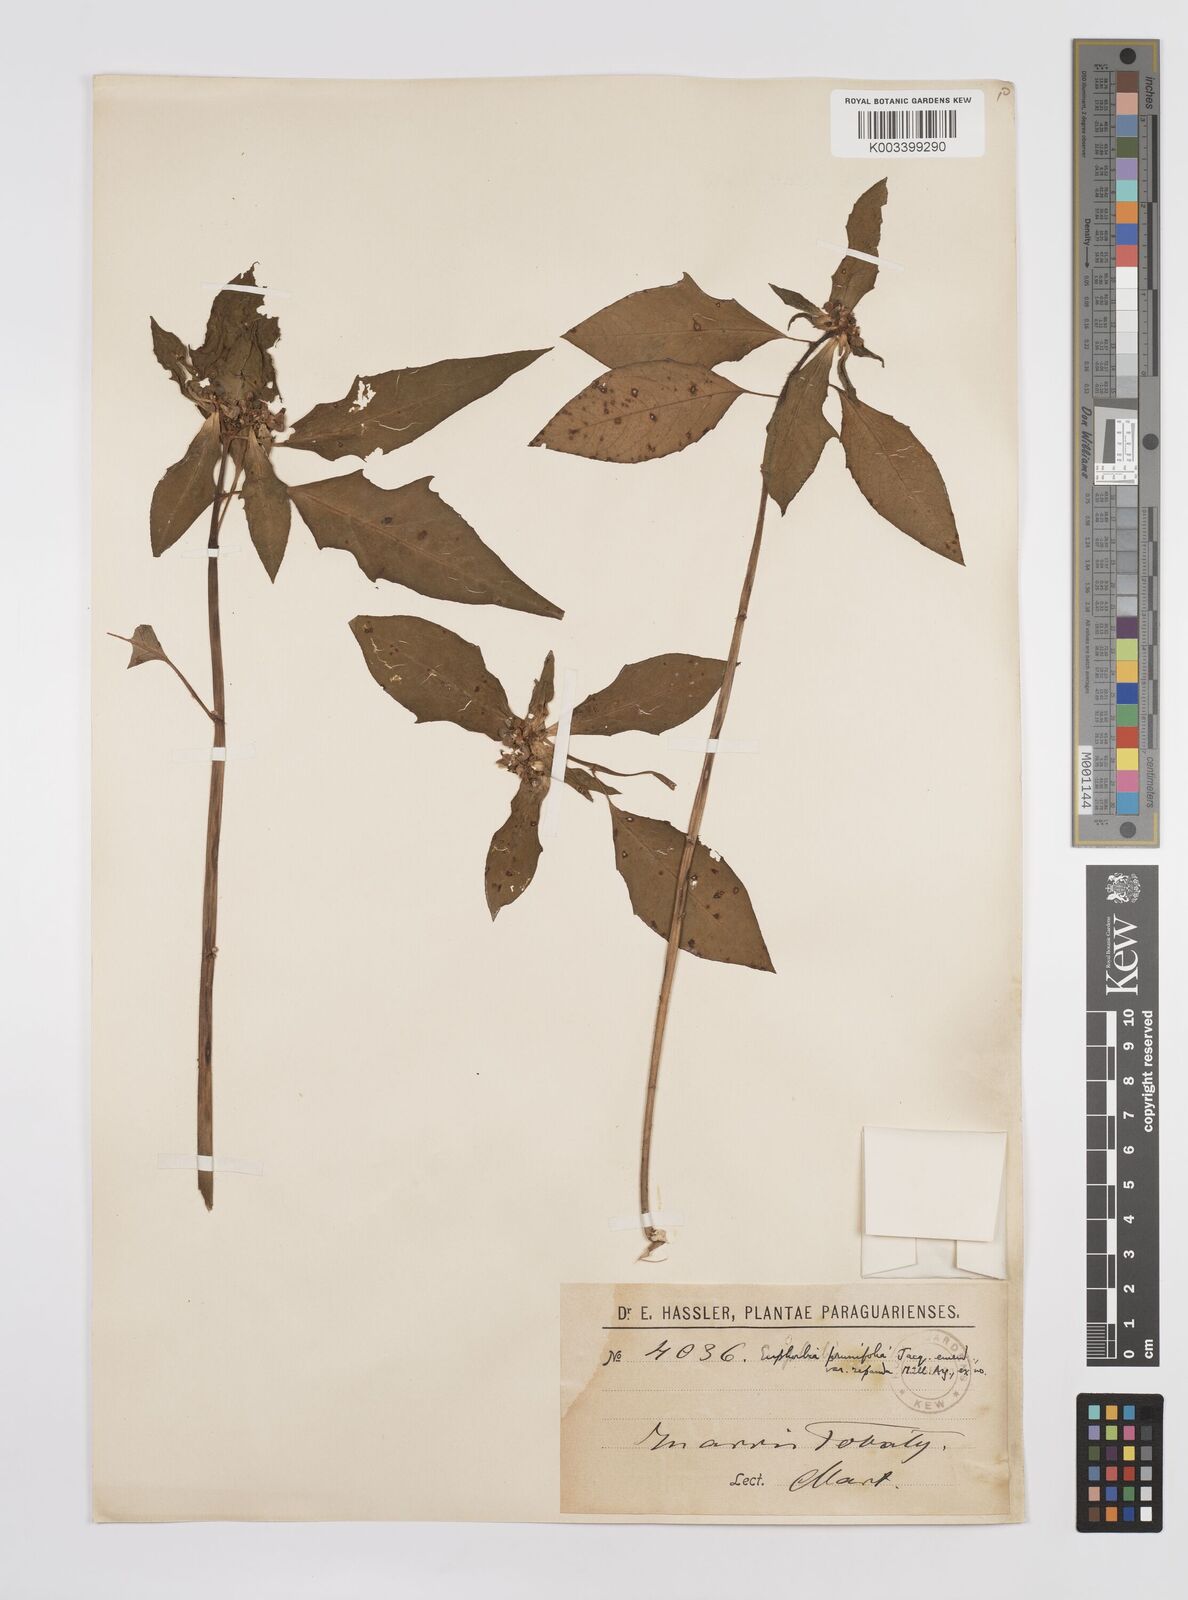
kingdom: Plantae
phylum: Tracheophyta
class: Magnoliopsida
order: Malpighiales
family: Euphorbiaceae
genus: Euphorbia
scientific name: Euphorbia heterophylla
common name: Mexican fireplant
